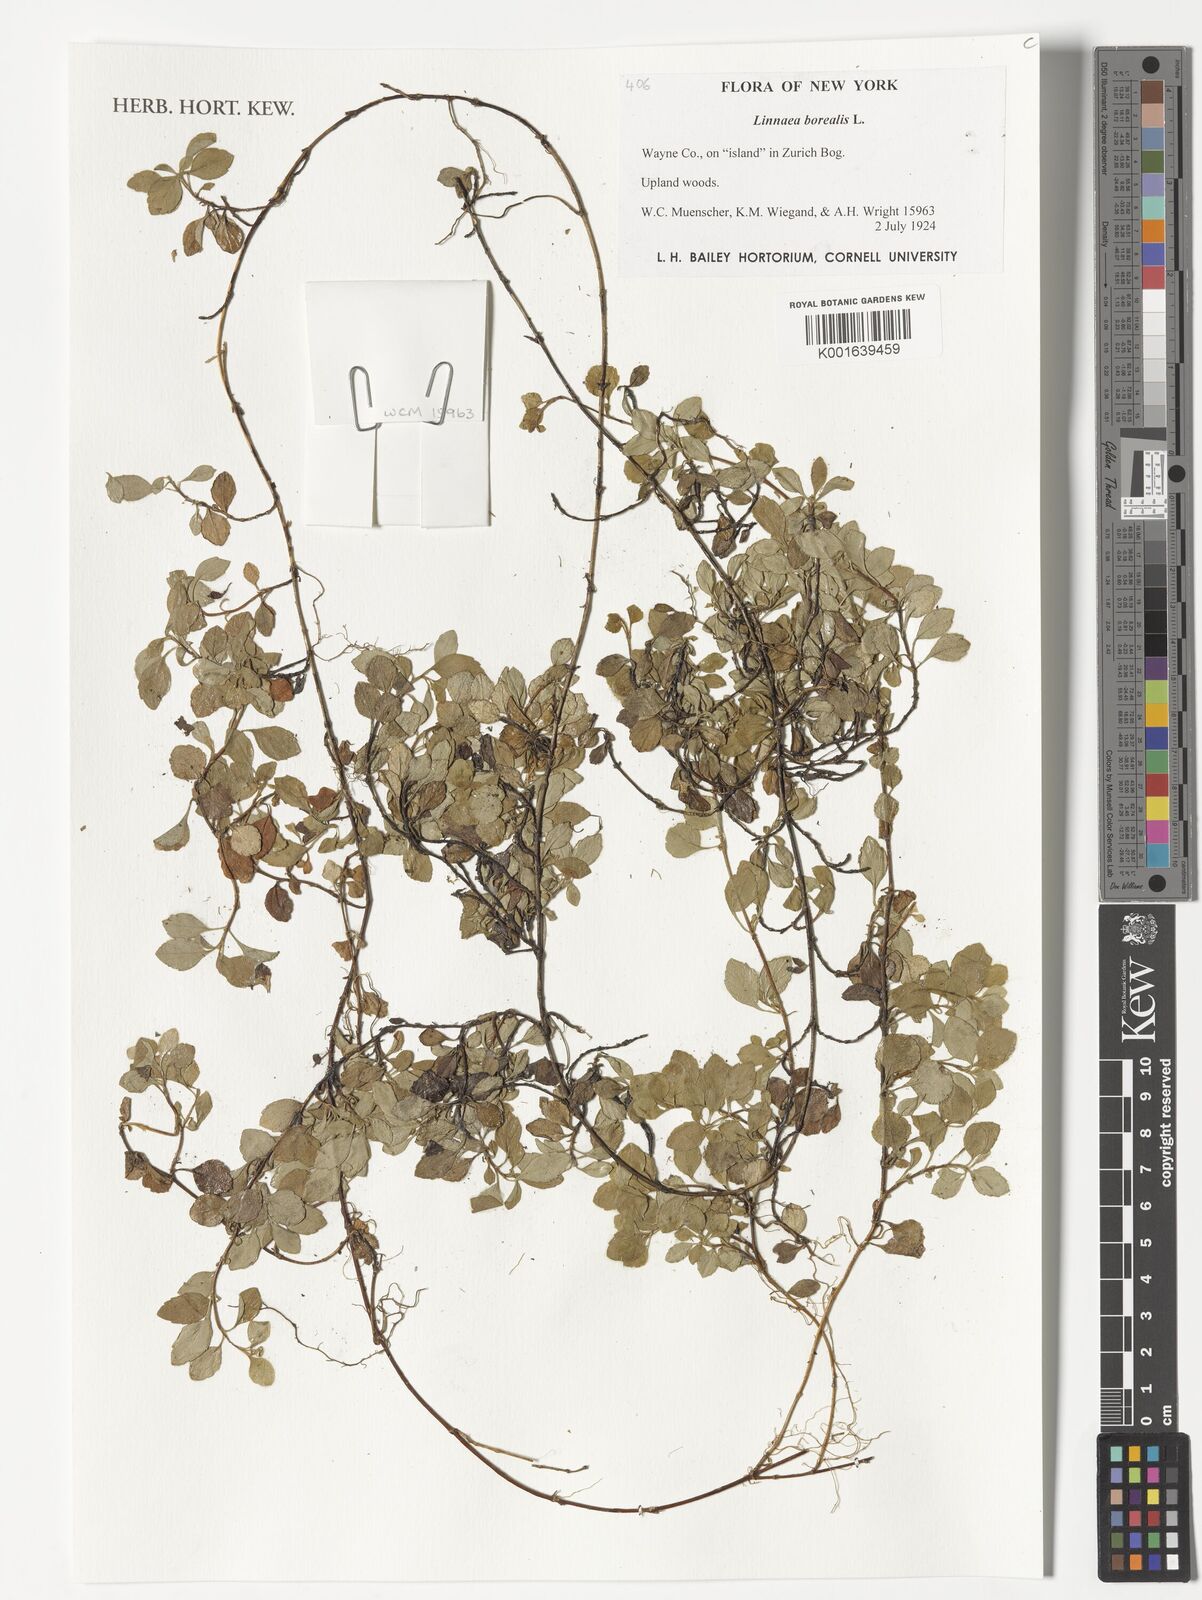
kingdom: Plantae
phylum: Tracheophyta
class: Magnoliopsida
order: Dipsacales
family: Caprifoliaceae
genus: Linnaea
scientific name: Linnaea borealis
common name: Twinflower
